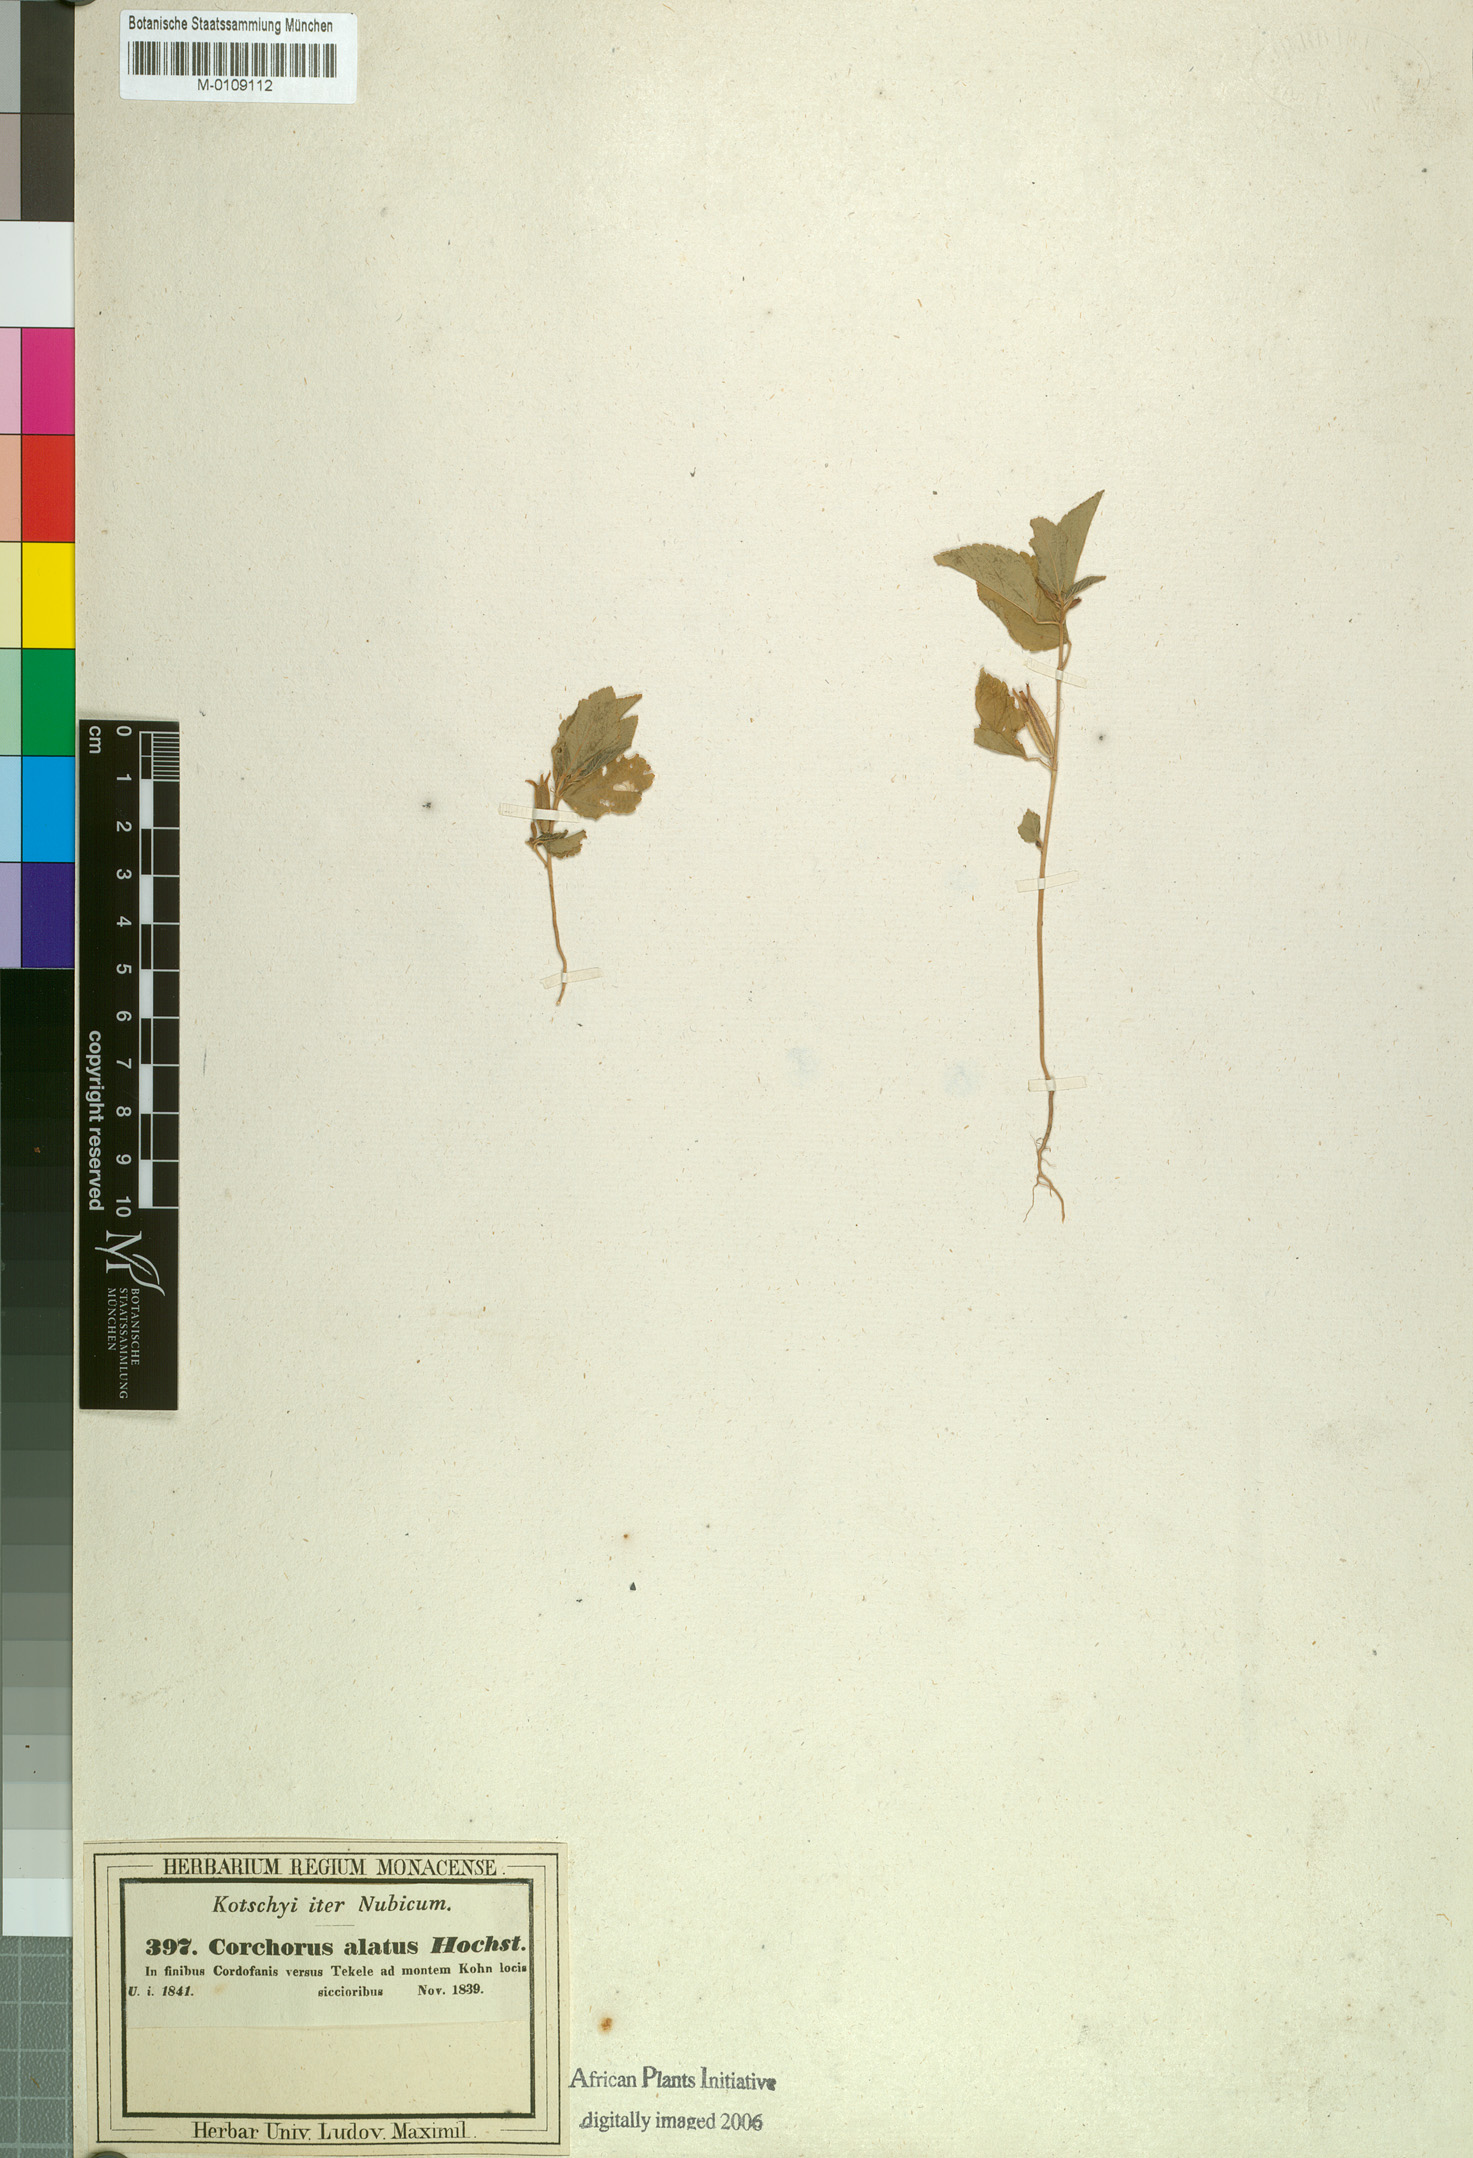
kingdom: Plantae
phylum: Tracheophyta
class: Magnoliopsida
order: Malvales
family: Malvaceae
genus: Corchorus
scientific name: Corchorus alatus
